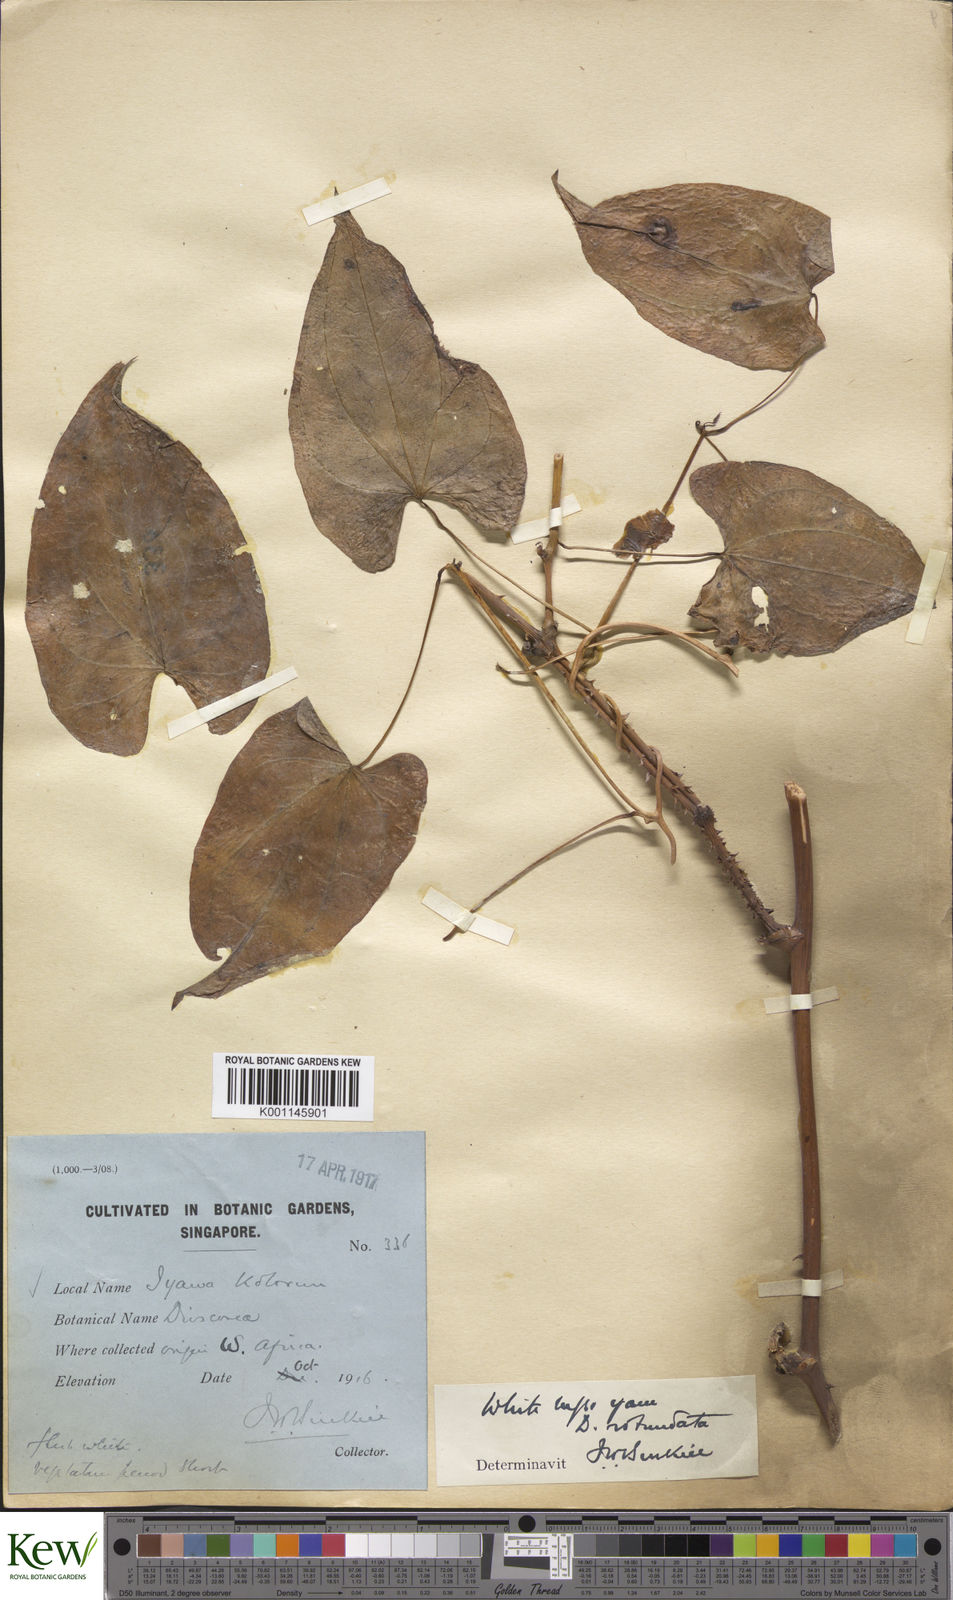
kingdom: Plantae
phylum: Tracheophyta
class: Liliopsida
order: Dioscoreales
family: Dioscoreaceae
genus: Dioscorea
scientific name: Dioscorea cayenensis
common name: Attoto yam
